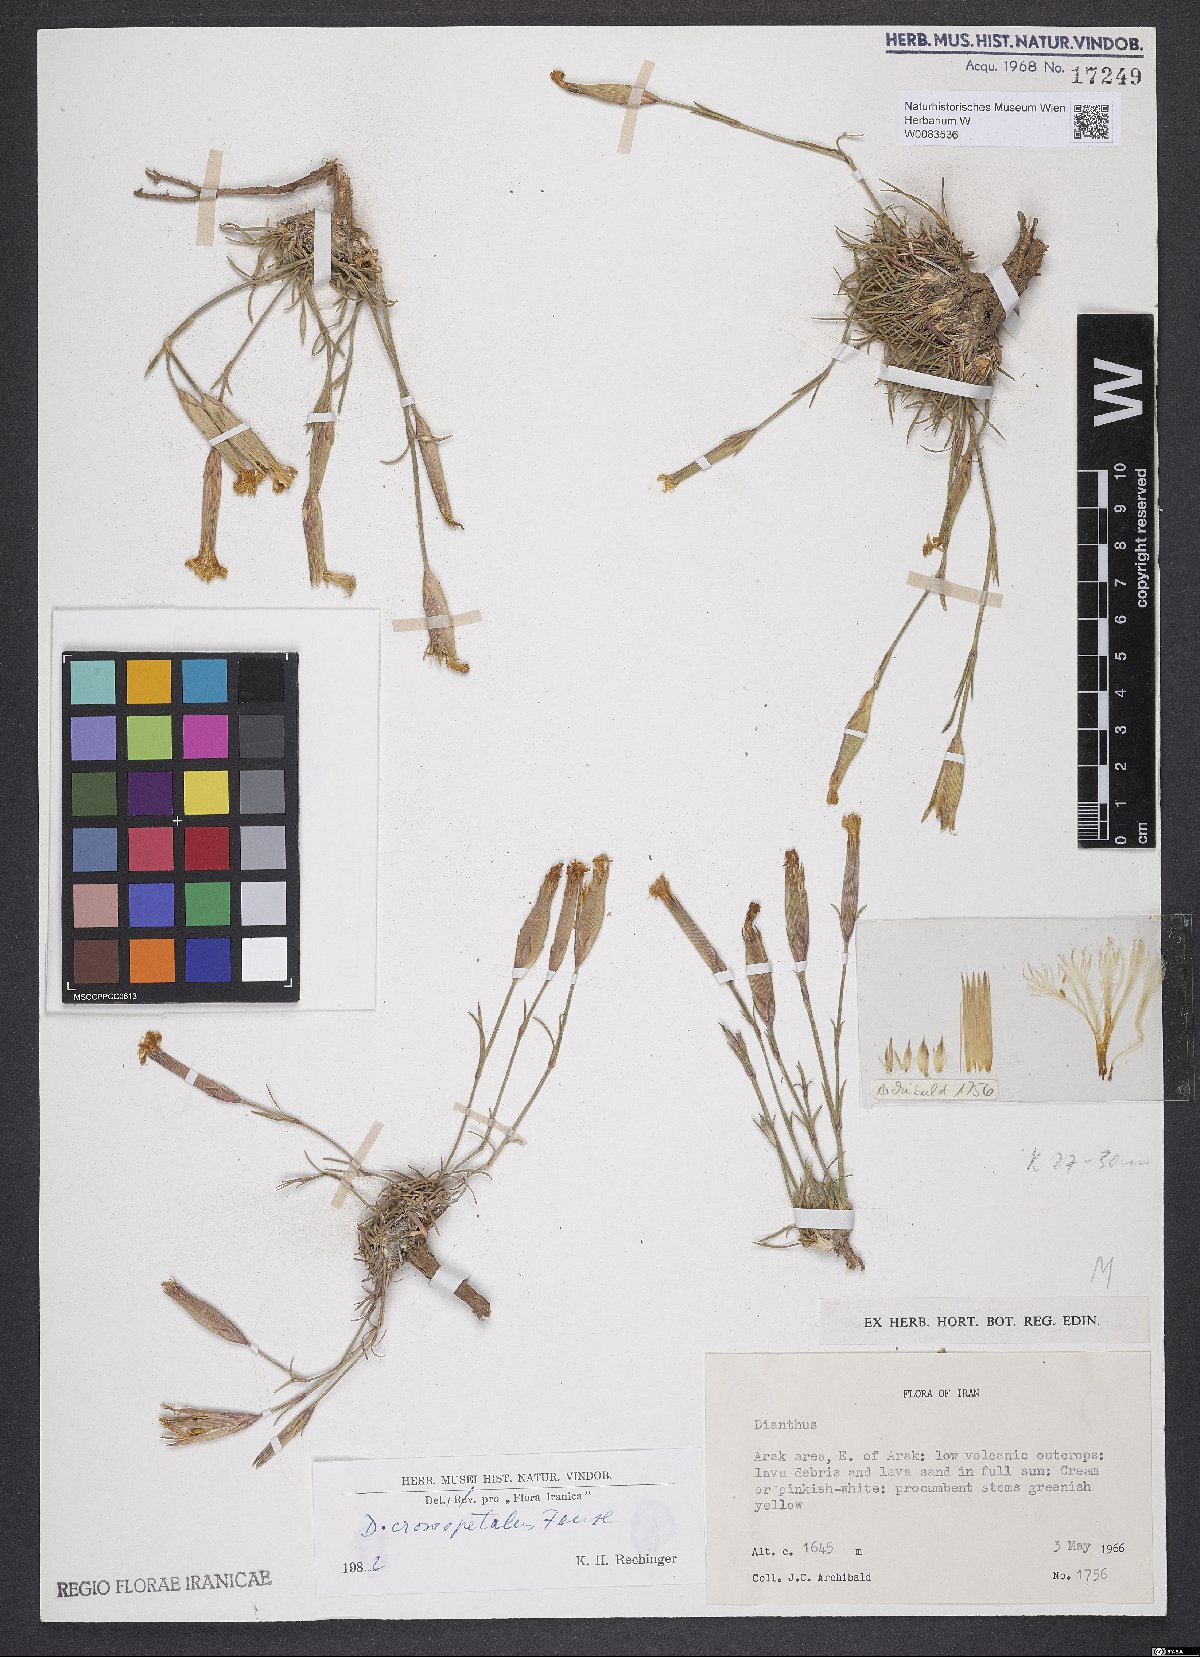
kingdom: Plantae
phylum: Tracheophyta
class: Magnoliopsida
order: Caryophyllales
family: Caryophyllaceae
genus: Dianthus
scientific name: Dianthus crossopetalus
